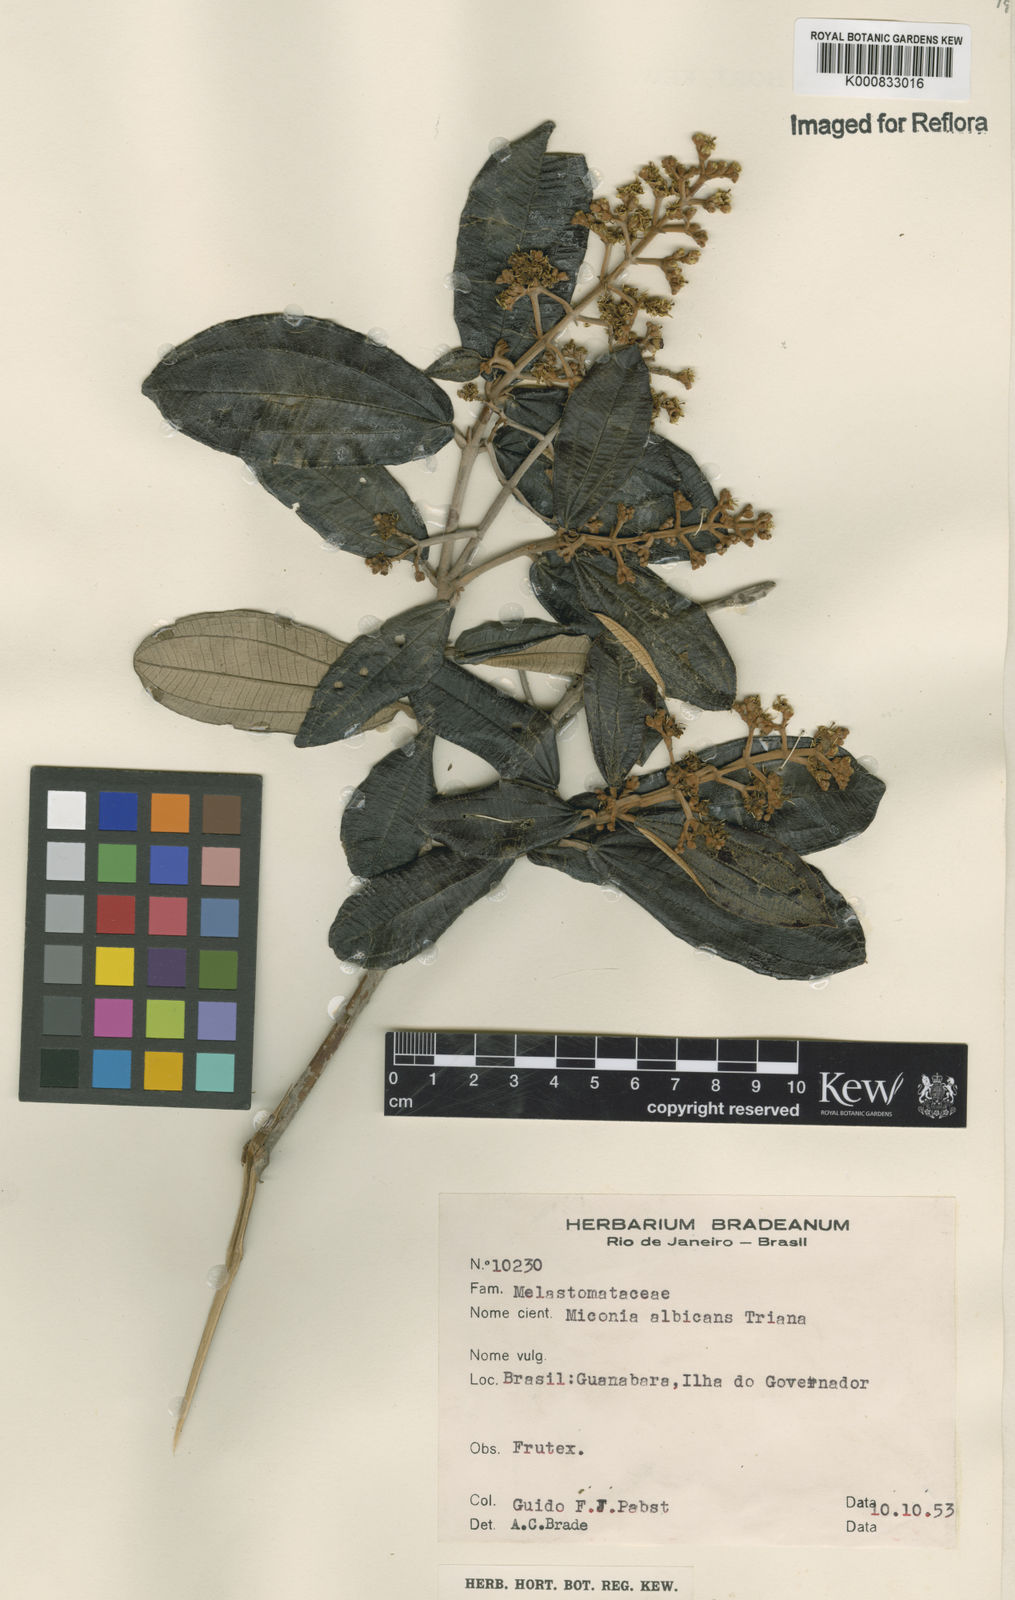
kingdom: Plantae
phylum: Tracheophyta
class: Magnoliopsida
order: Myrtales
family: Melastomataceae
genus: Miconia
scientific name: Miconia albicans
